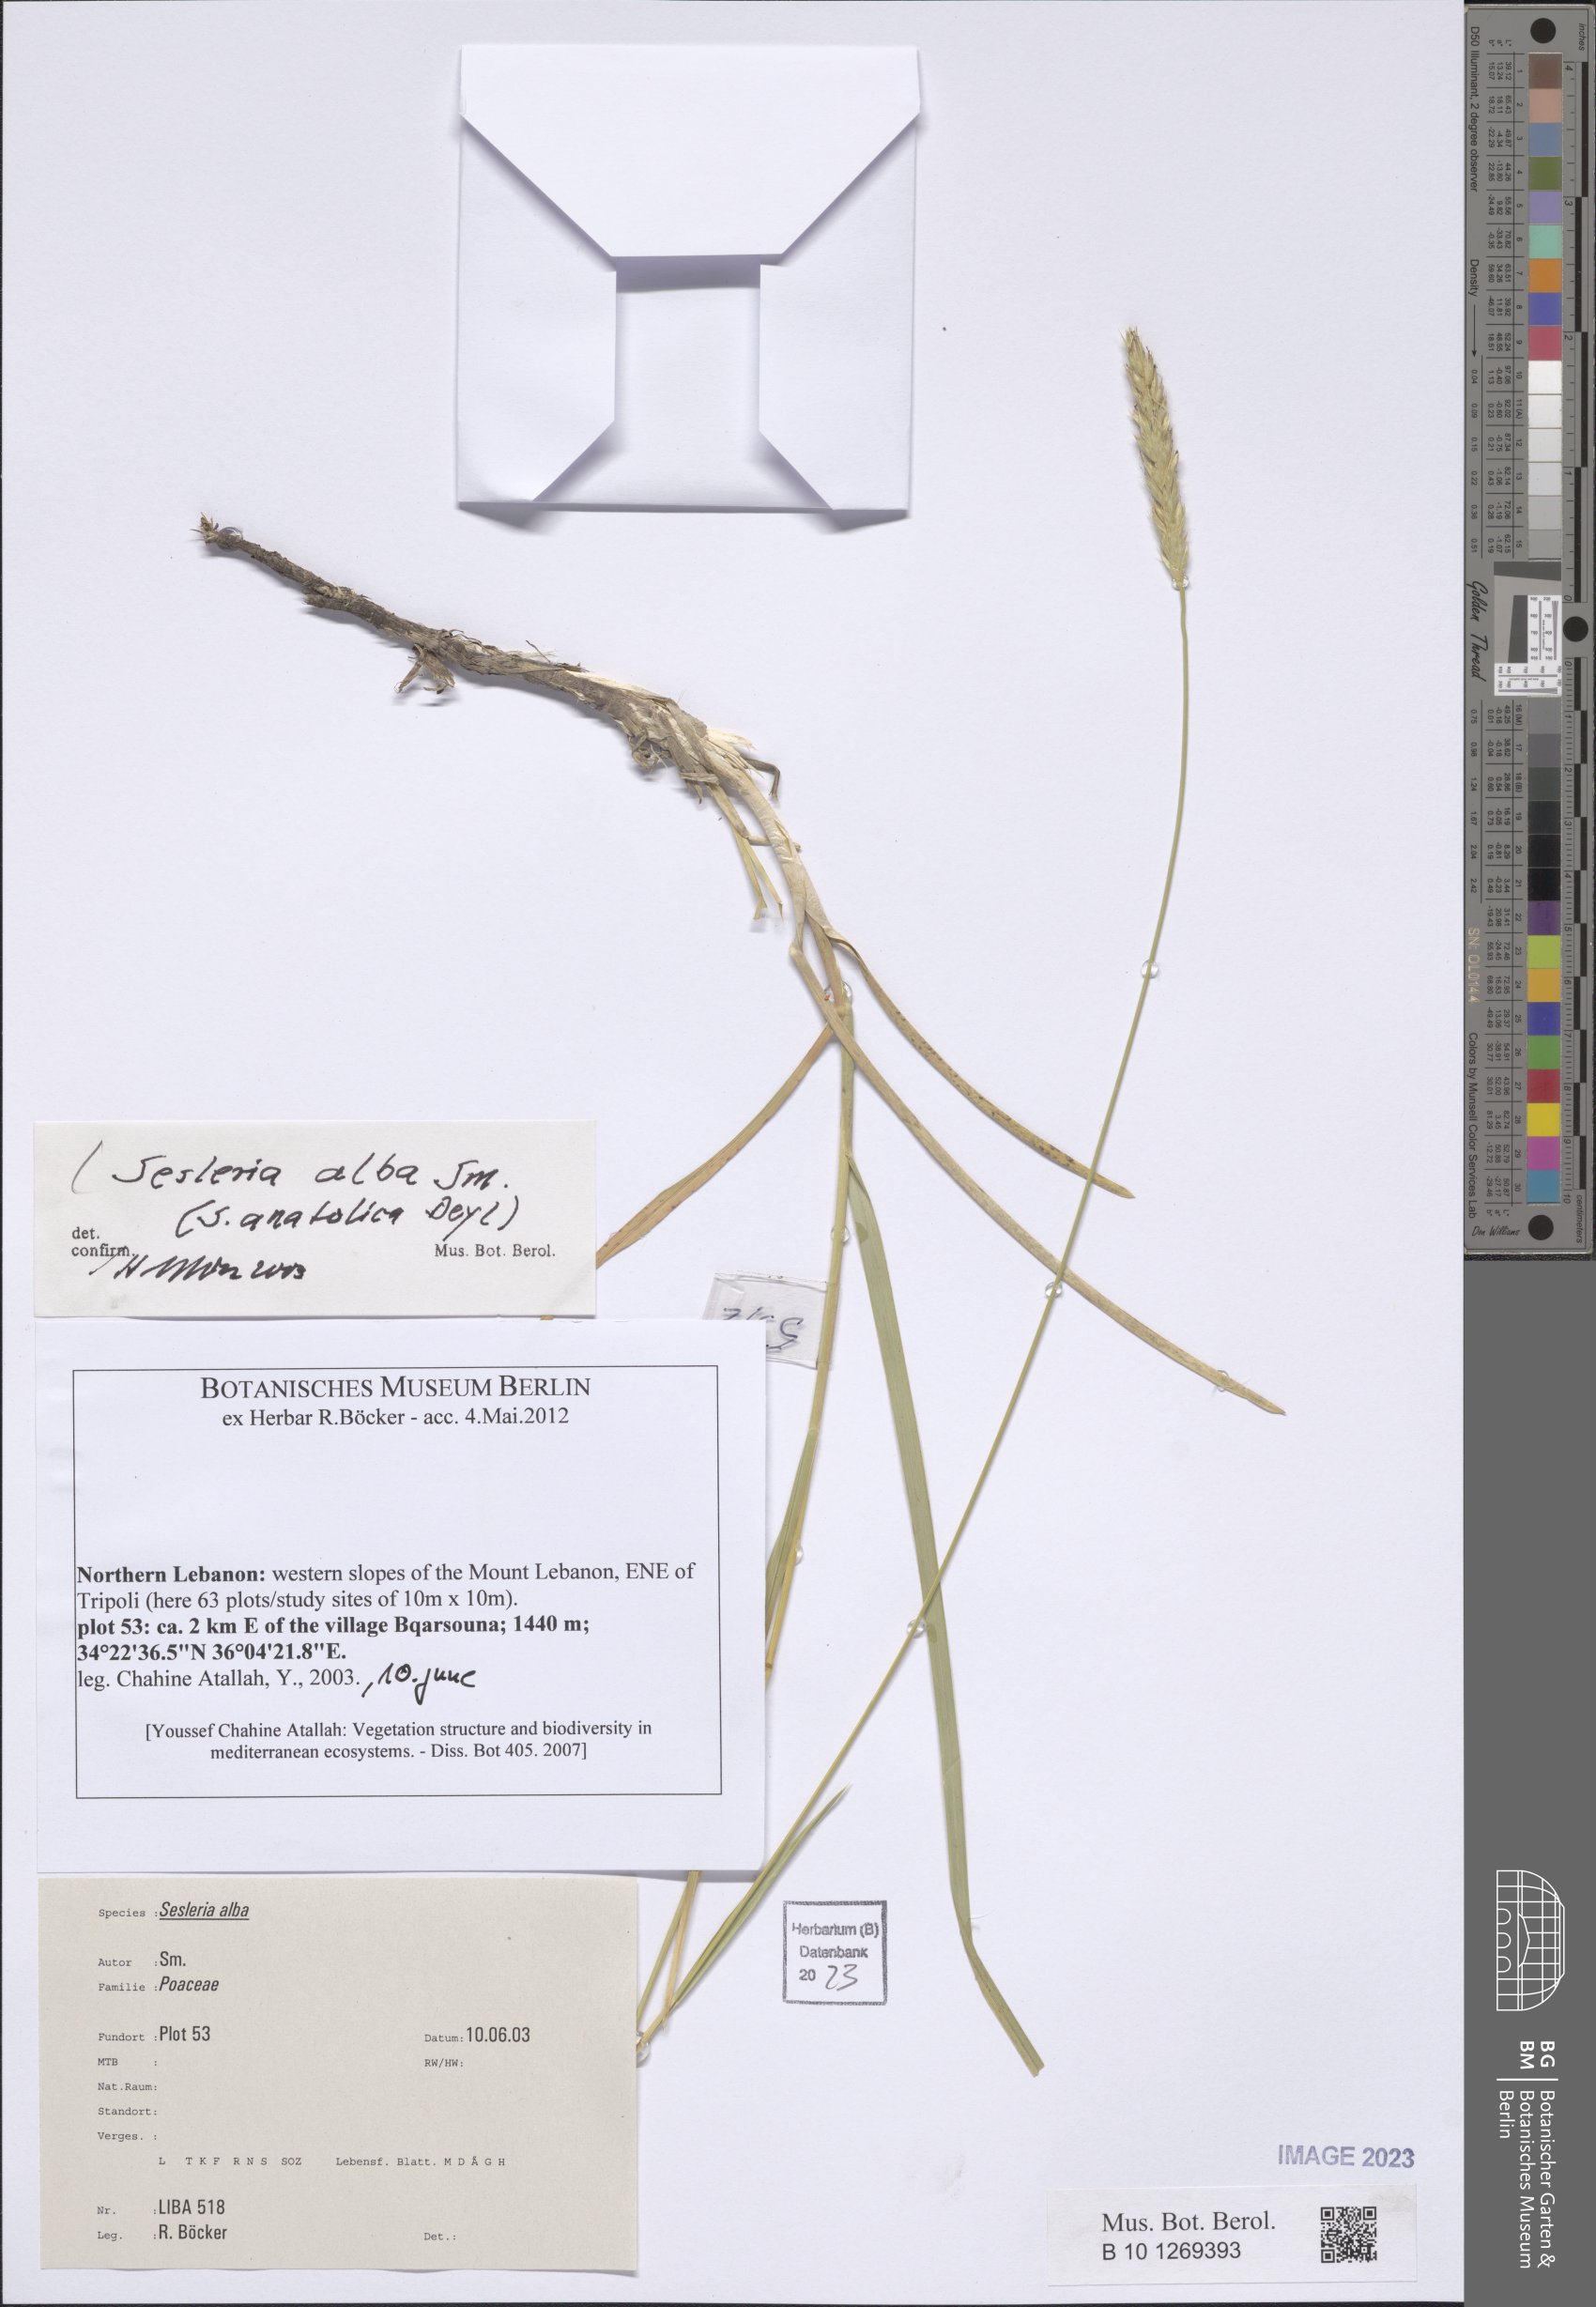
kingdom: Plantae
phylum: Tracheophyta
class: Liliopsida
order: Poales
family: Poaceae
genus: Sesleria
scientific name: Sesleria alba
